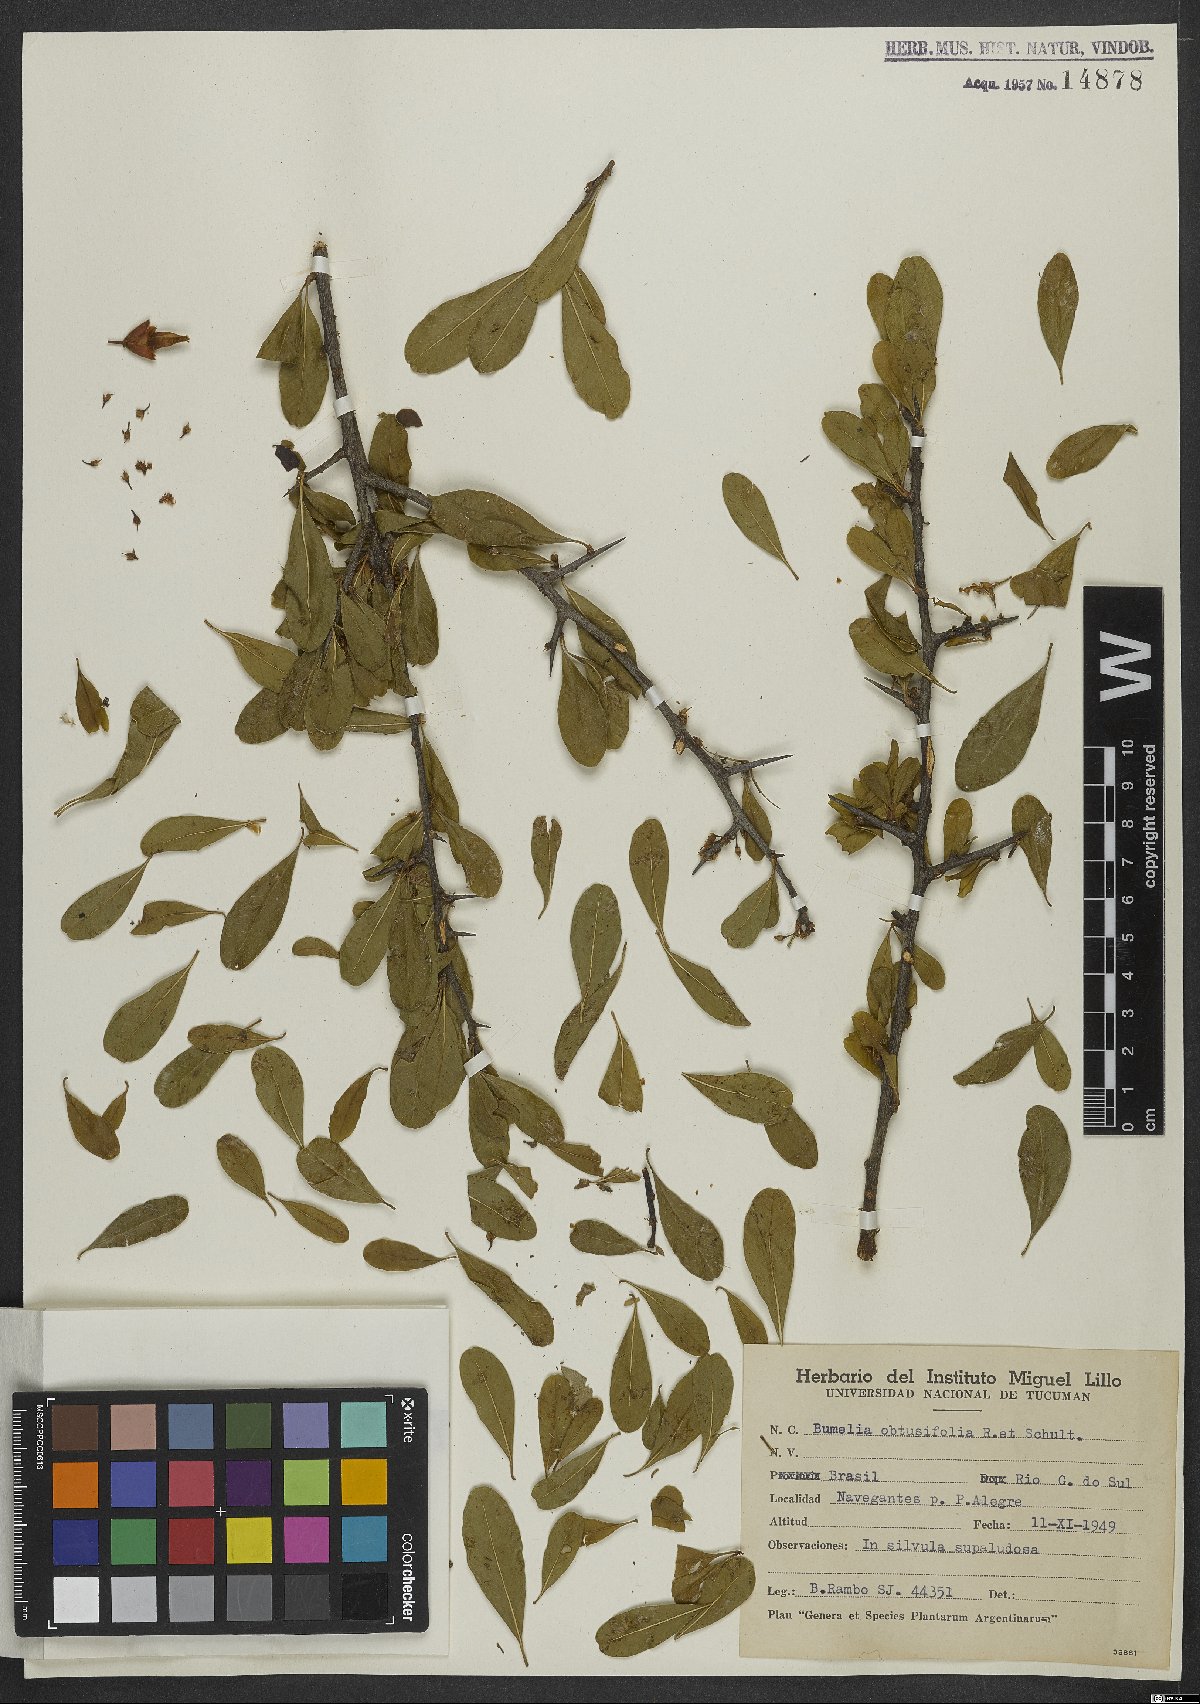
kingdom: Plantae
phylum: Tracheophyta
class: Magnoliopsida
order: Ericales
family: Sapotaceae
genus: Sideroxylon
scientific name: Sideroxylon obtusifolium
